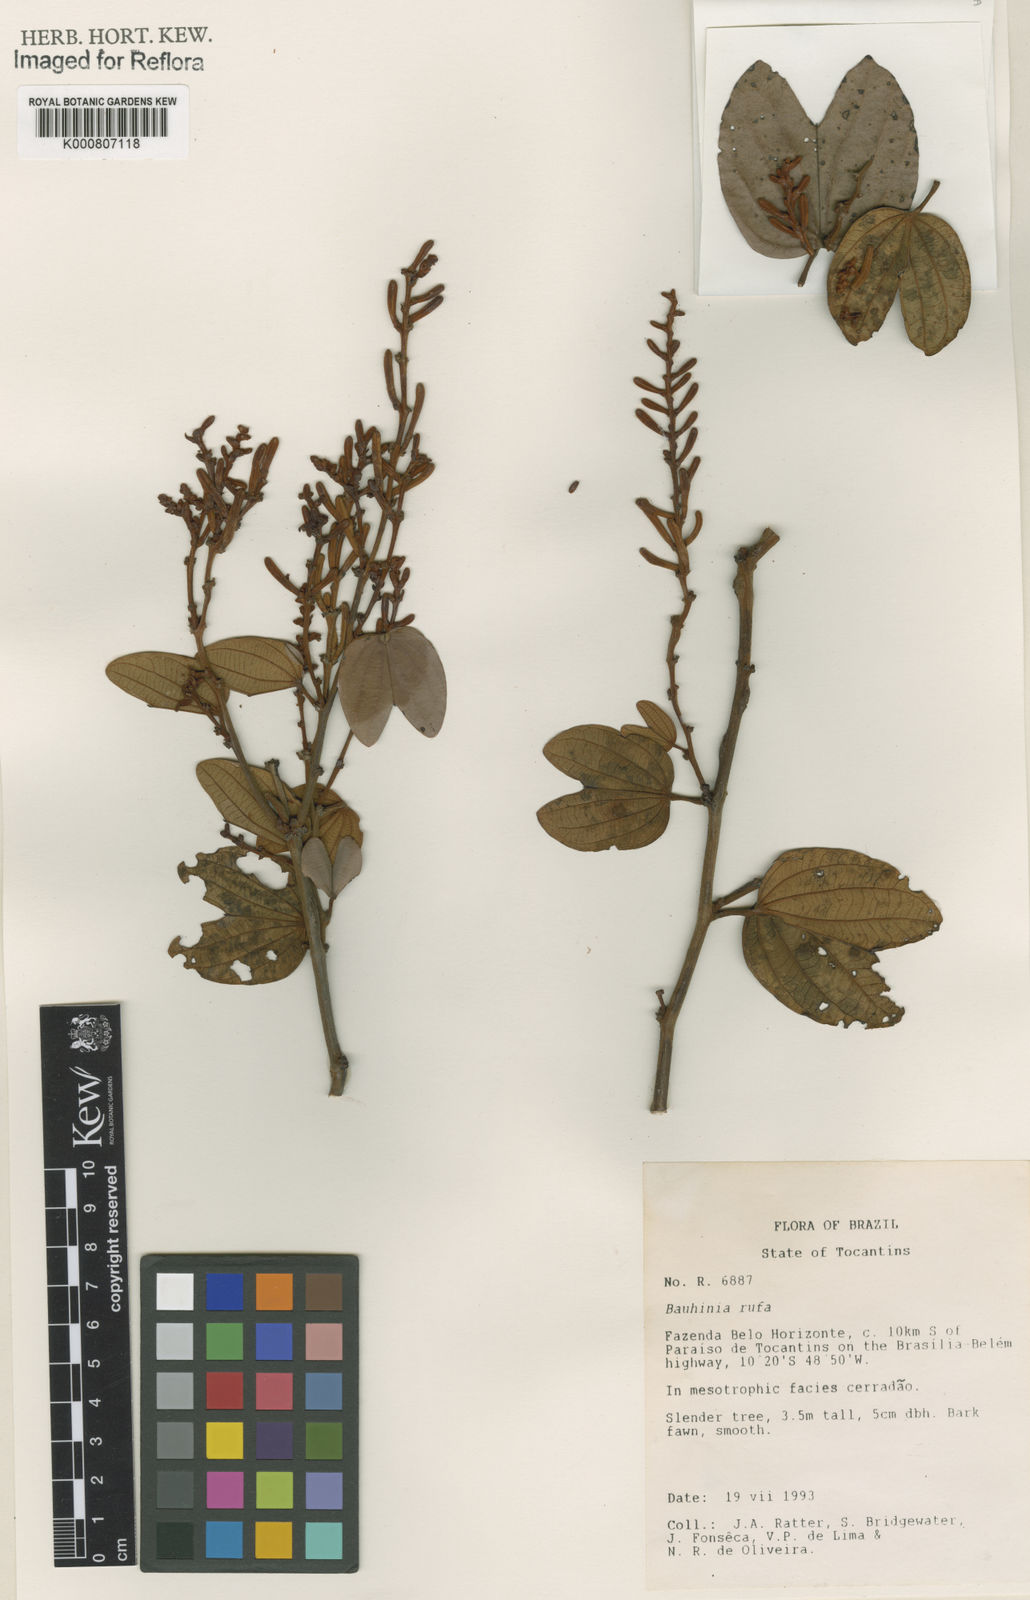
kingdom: Plantae
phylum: Tracheophyta
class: Magnoliopsida
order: Fabales
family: Fabaceae
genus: Bauhinia
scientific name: Bauhinia rufa
